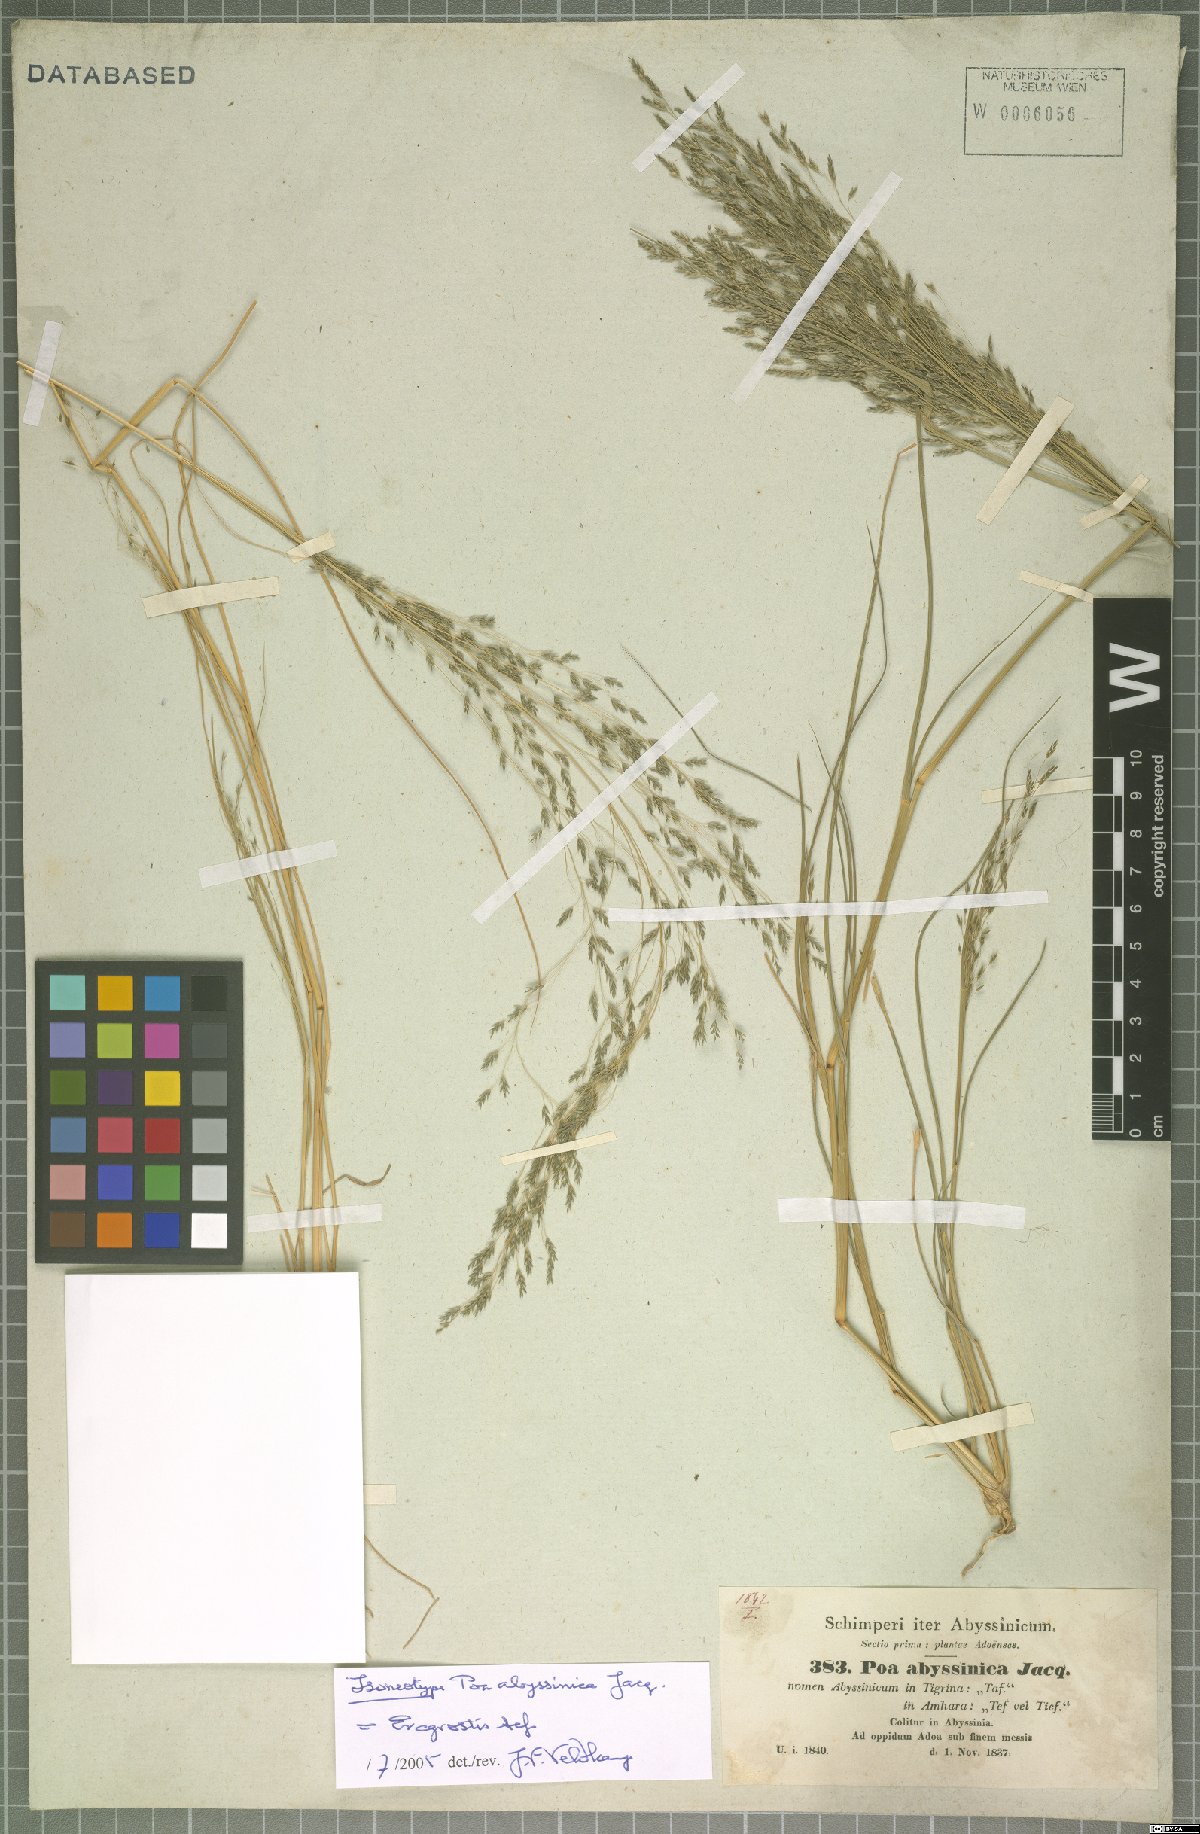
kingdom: Plantae
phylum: Tracheophyta
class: Liliopsida
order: Poales
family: Poaceae
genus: Eragrostis
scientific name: Eragrostis tef
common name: Teff
